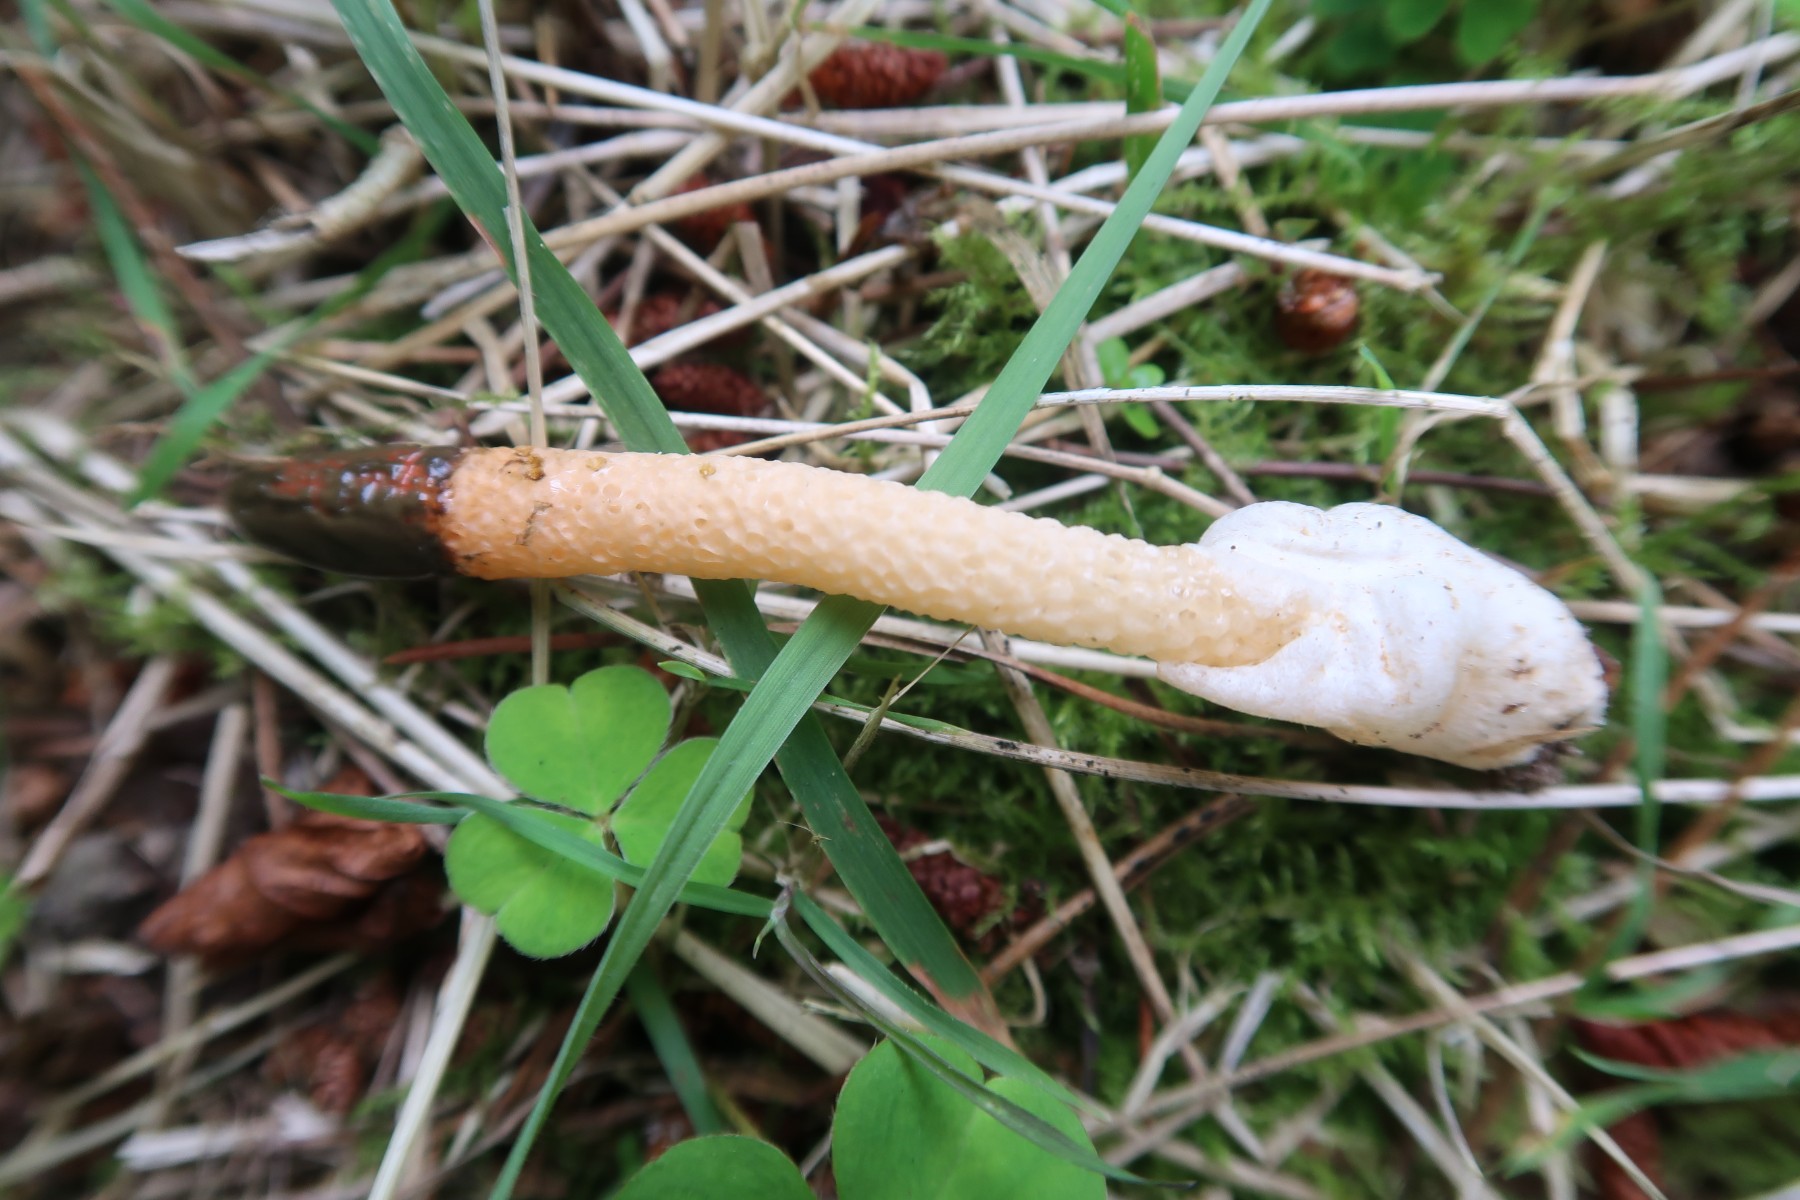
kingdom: Fungi
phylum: Basidiomycota
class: Agaricomycetes
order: Phallales
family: Phallaceae
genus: Mutinus
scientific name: Mutinus caninus
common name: hunde-stinksvamp
